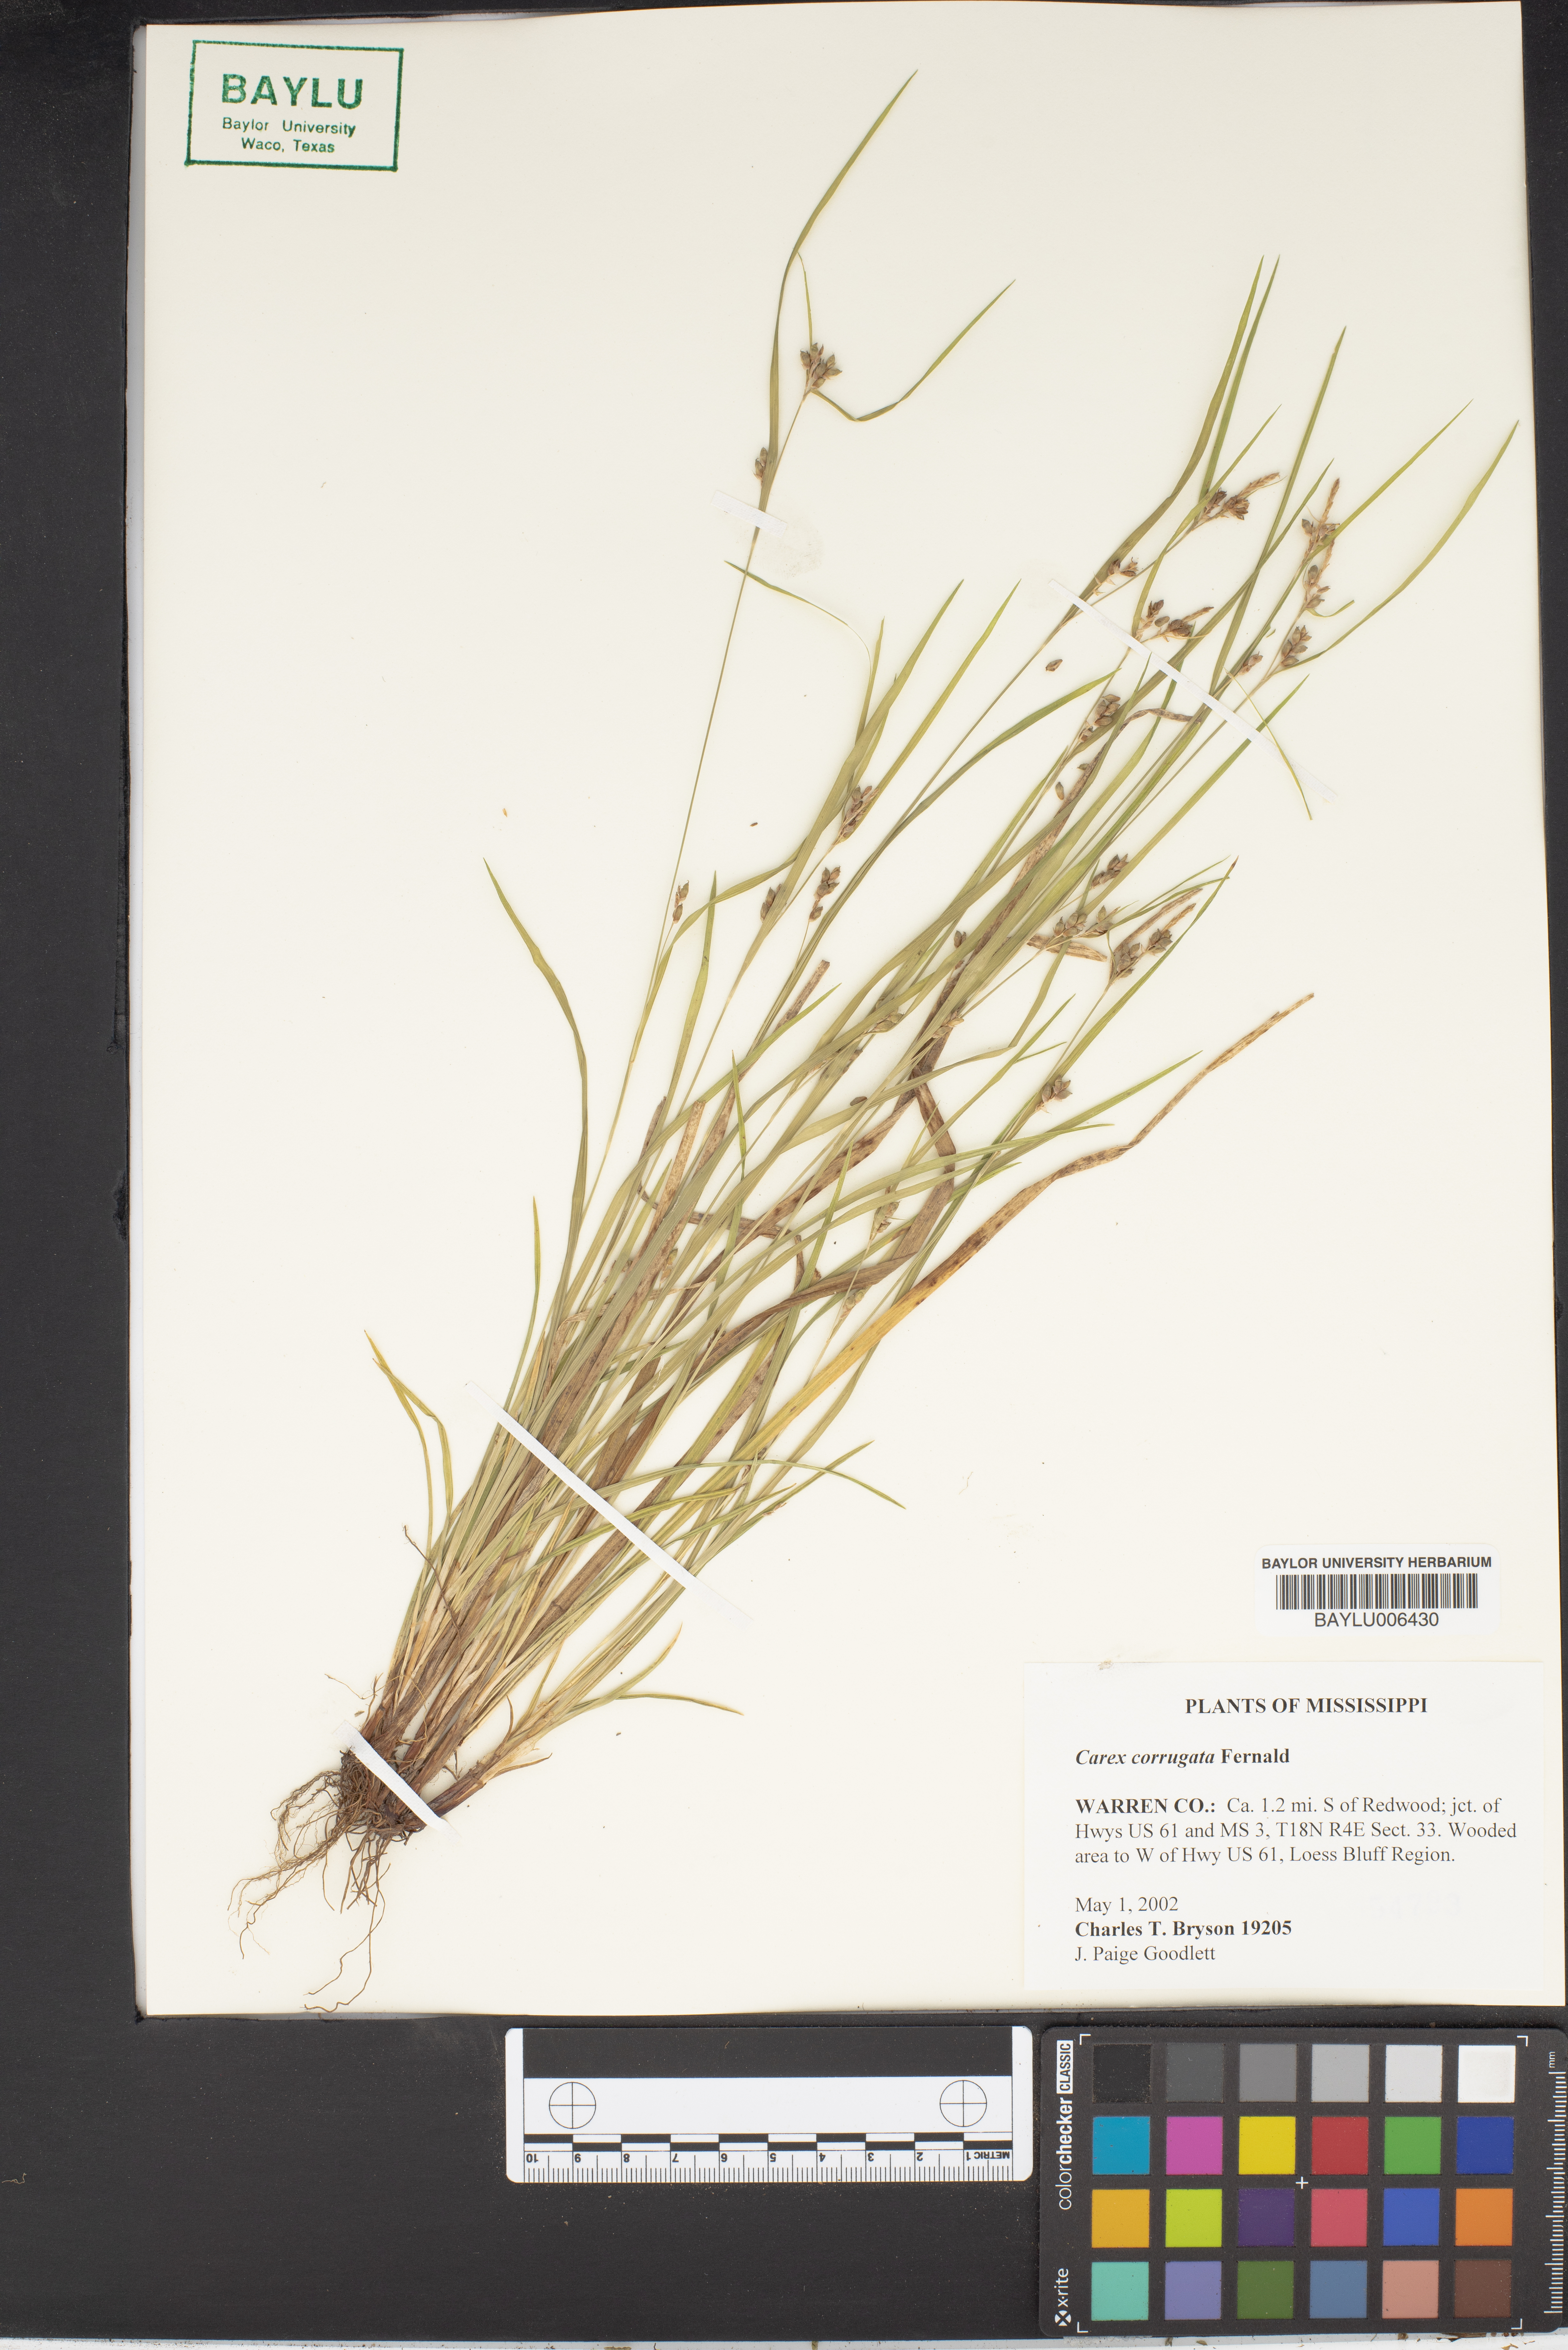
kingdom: Plantae
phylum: Tracheophyta
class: Liliopsida
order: Poales
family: Cyperaceae
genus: Carex
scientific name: Carex corrugata
